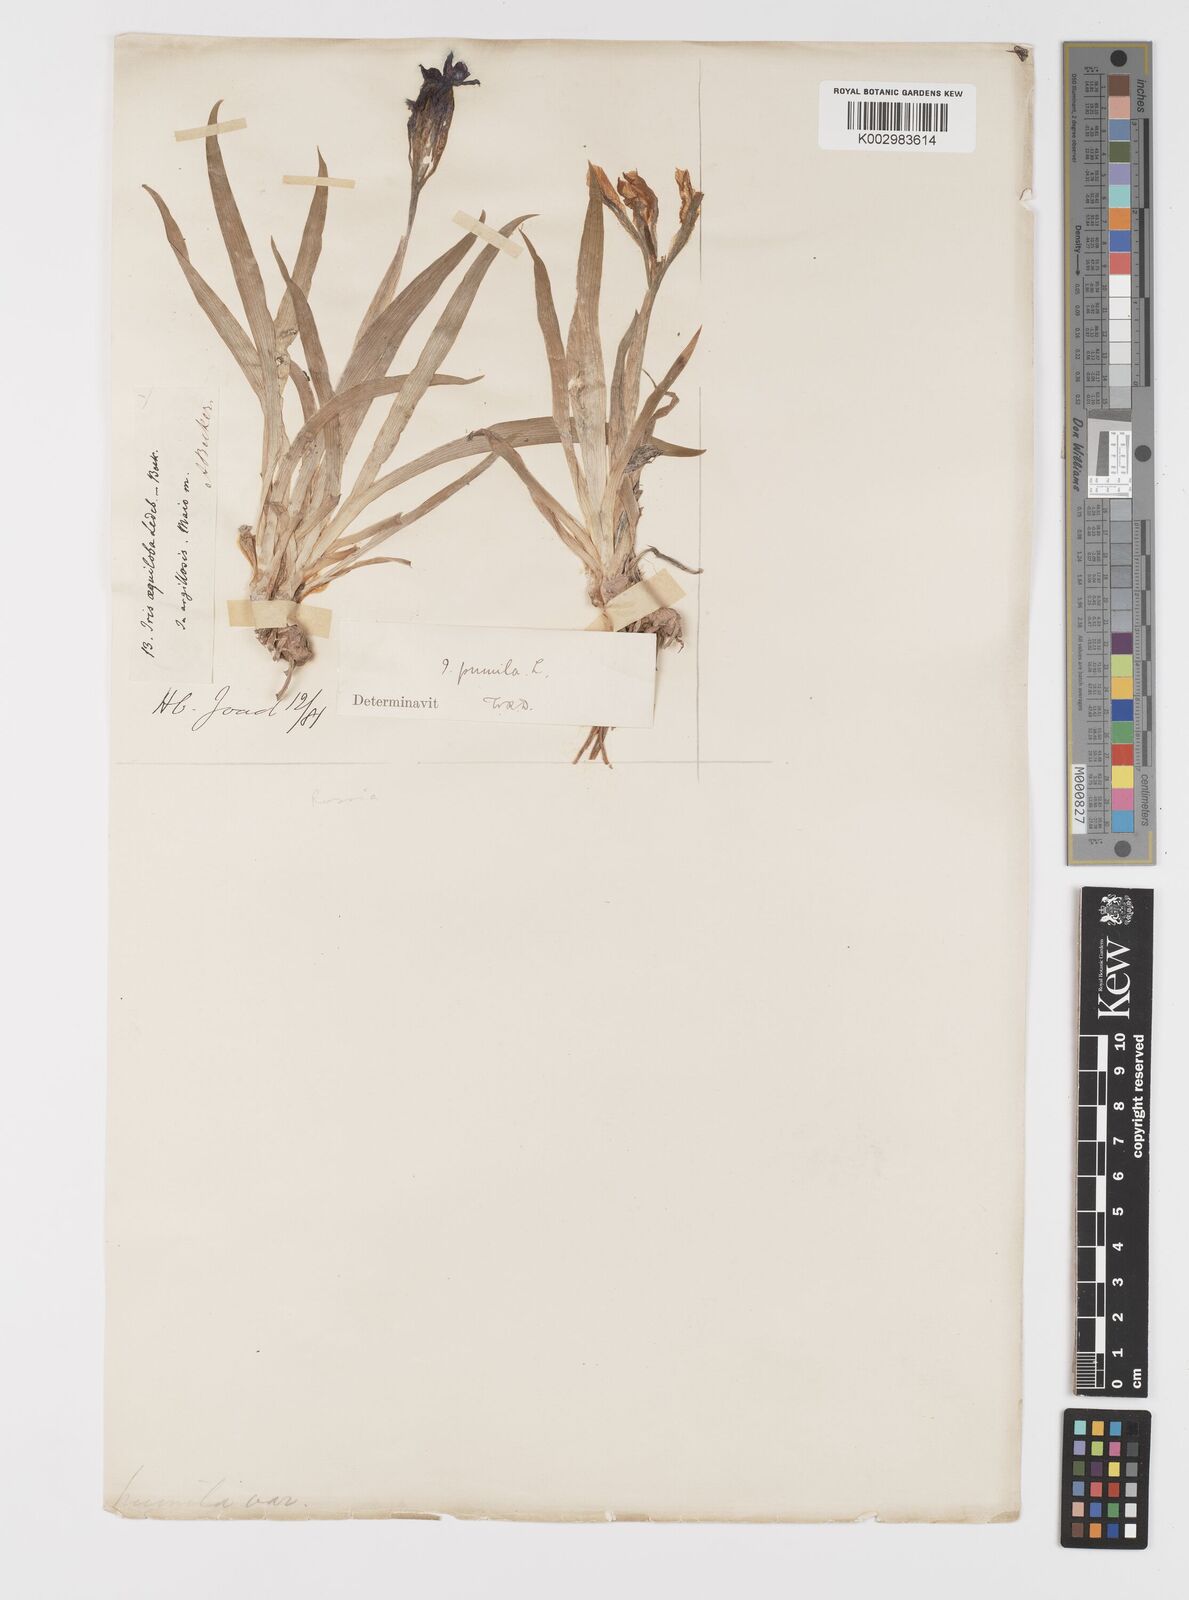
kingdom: Plantae
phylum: Tracheophyta
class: Liliopsida
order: Asparagales
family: Iridaceae
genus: Iris
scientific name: Iris pumila
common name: Dwarf iris
